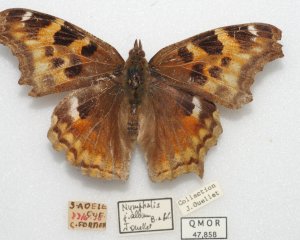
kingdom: Animalia
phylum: Arthropoda
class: Insecta
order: Lepidoptera
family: Nymphalidae
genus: Polygonia
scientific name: Polygonia vaualbum
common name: Compton Tortoiseshell
